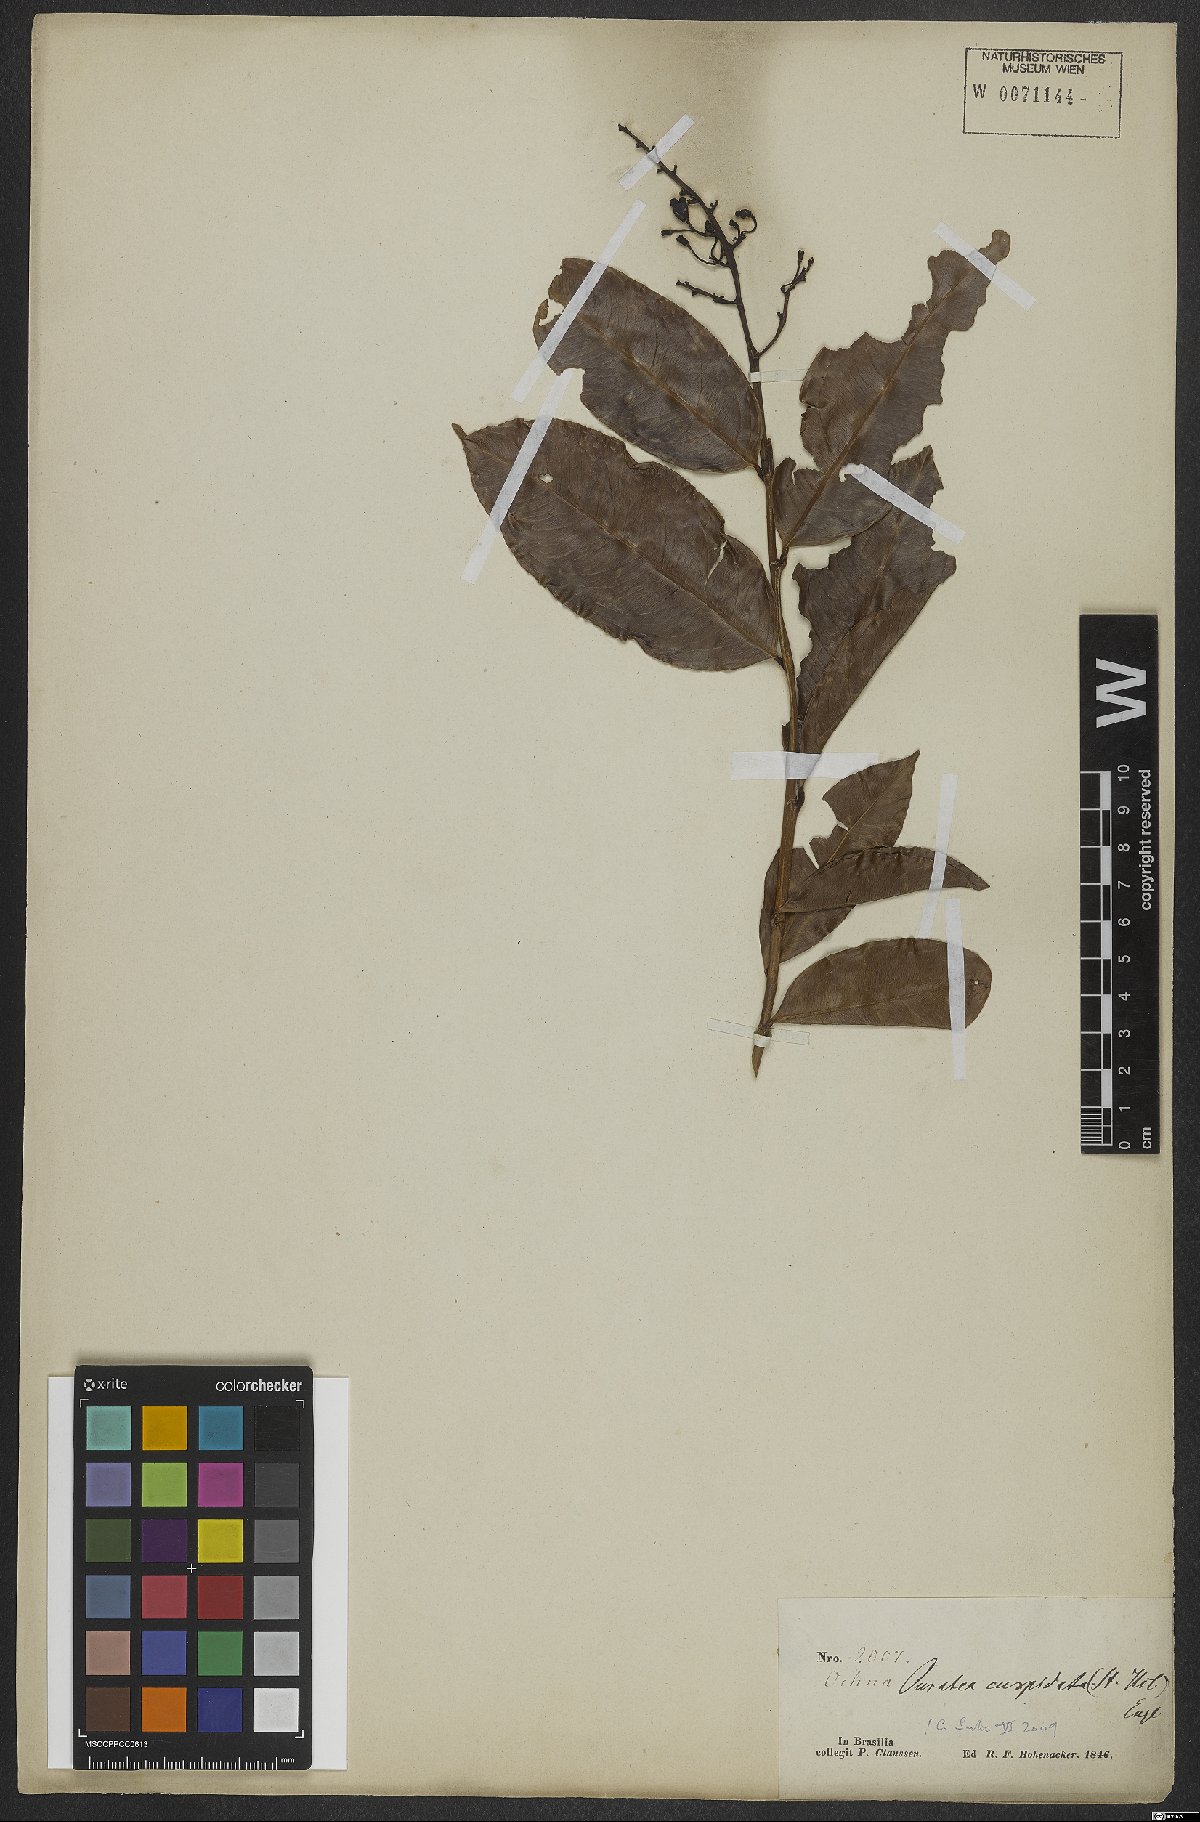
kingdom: Plantae
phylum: Tracheophyta
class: Magnoliopsida
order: Malpighiales
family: Ochnaceae
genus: Ouratea
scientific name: Ouratea cuspidata
